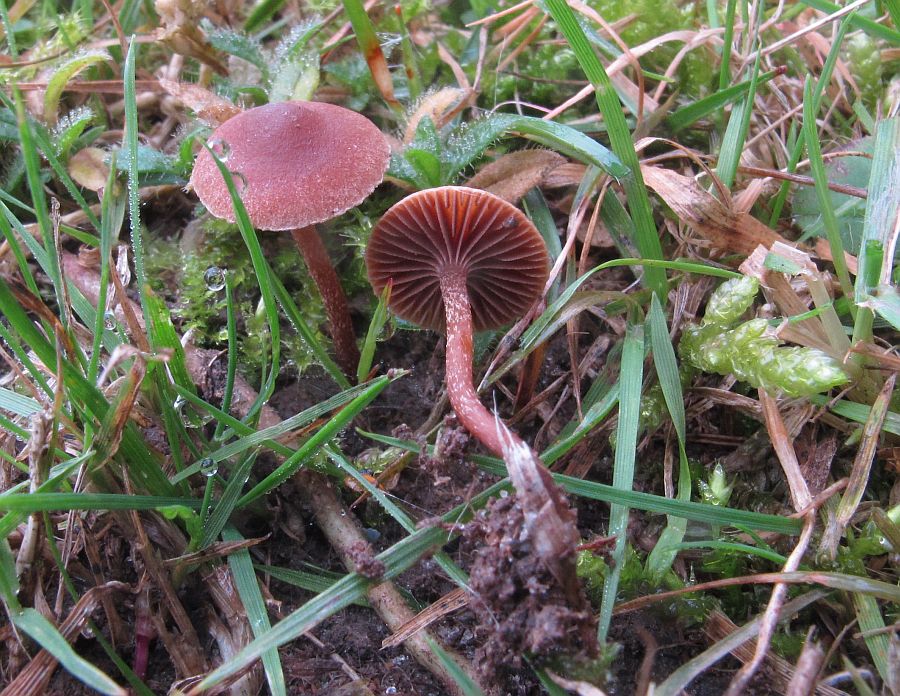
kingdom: Fungi
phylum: Basidiomycota
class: Agaricomycetes
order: Agaricales
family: Strophariaceae
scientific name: Strophariaceae
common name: bredbladfamilien
